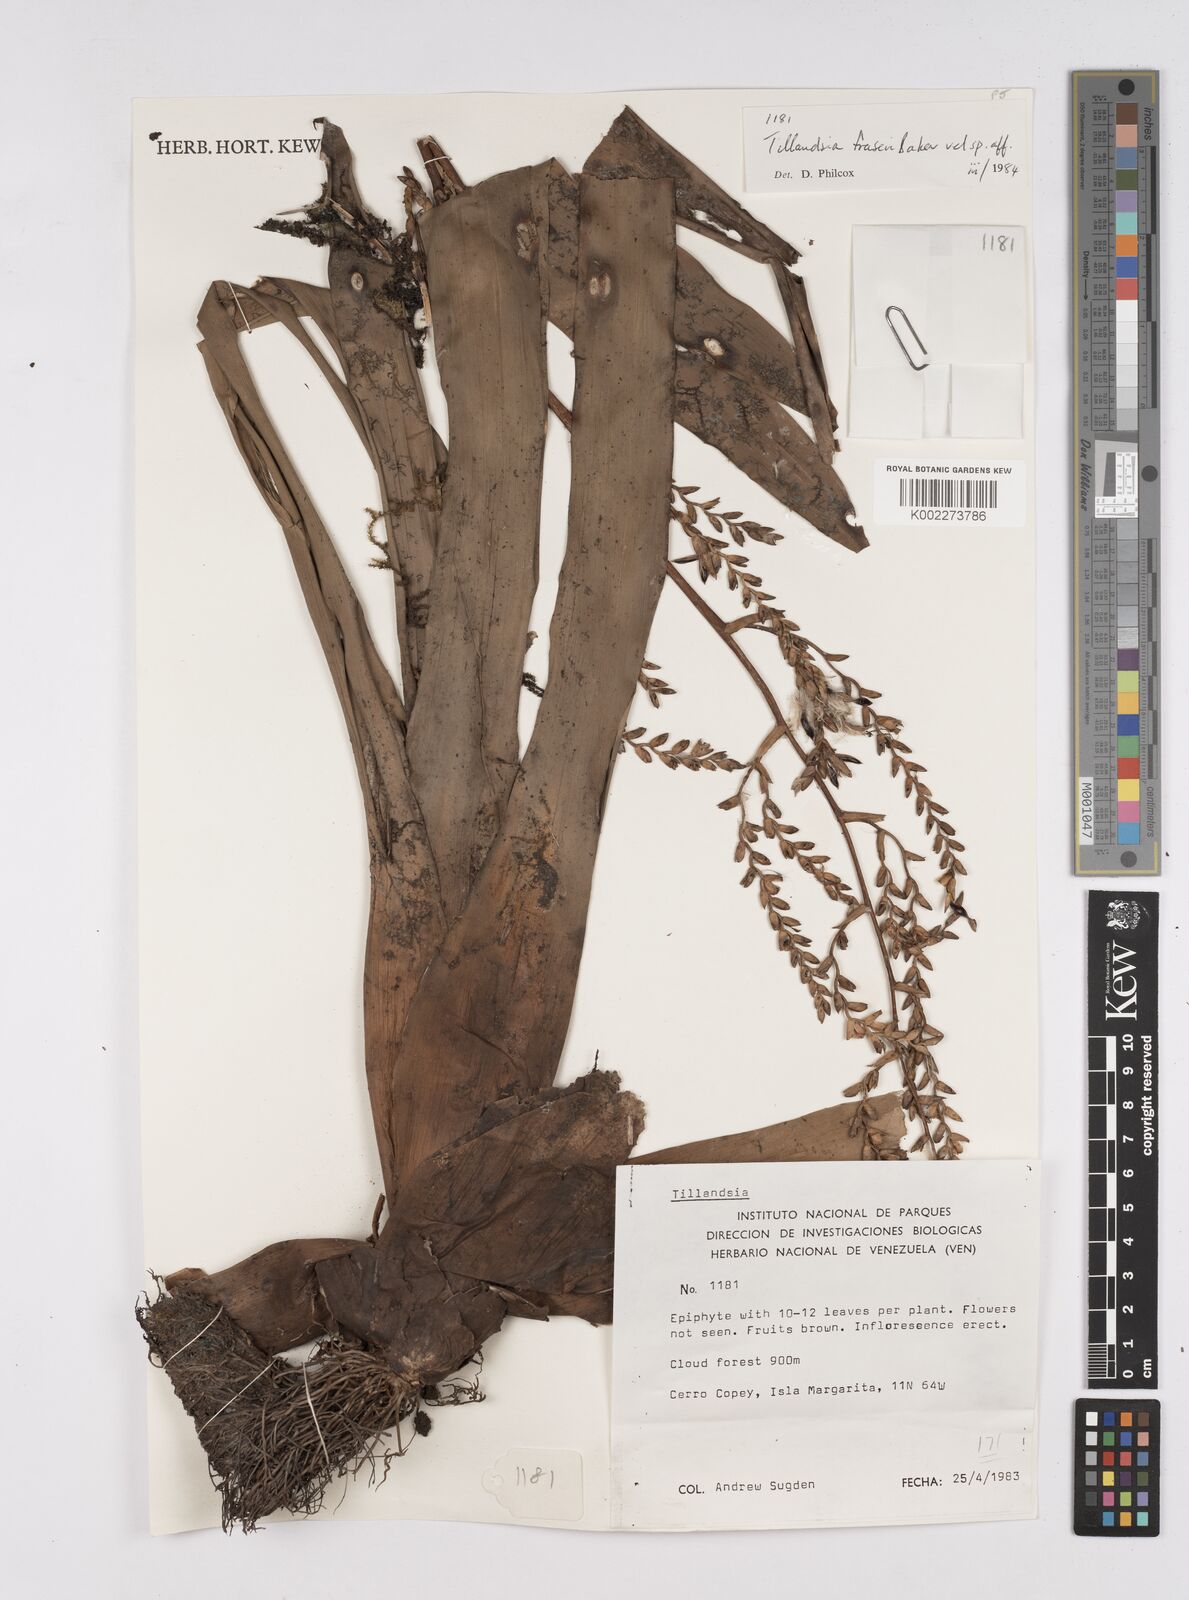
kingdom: Plantae
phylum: Tracheophyta
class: Liliopsida
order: Poales
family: Bromeliaceae
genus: Racinaea
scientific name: Racinaea fraseri
